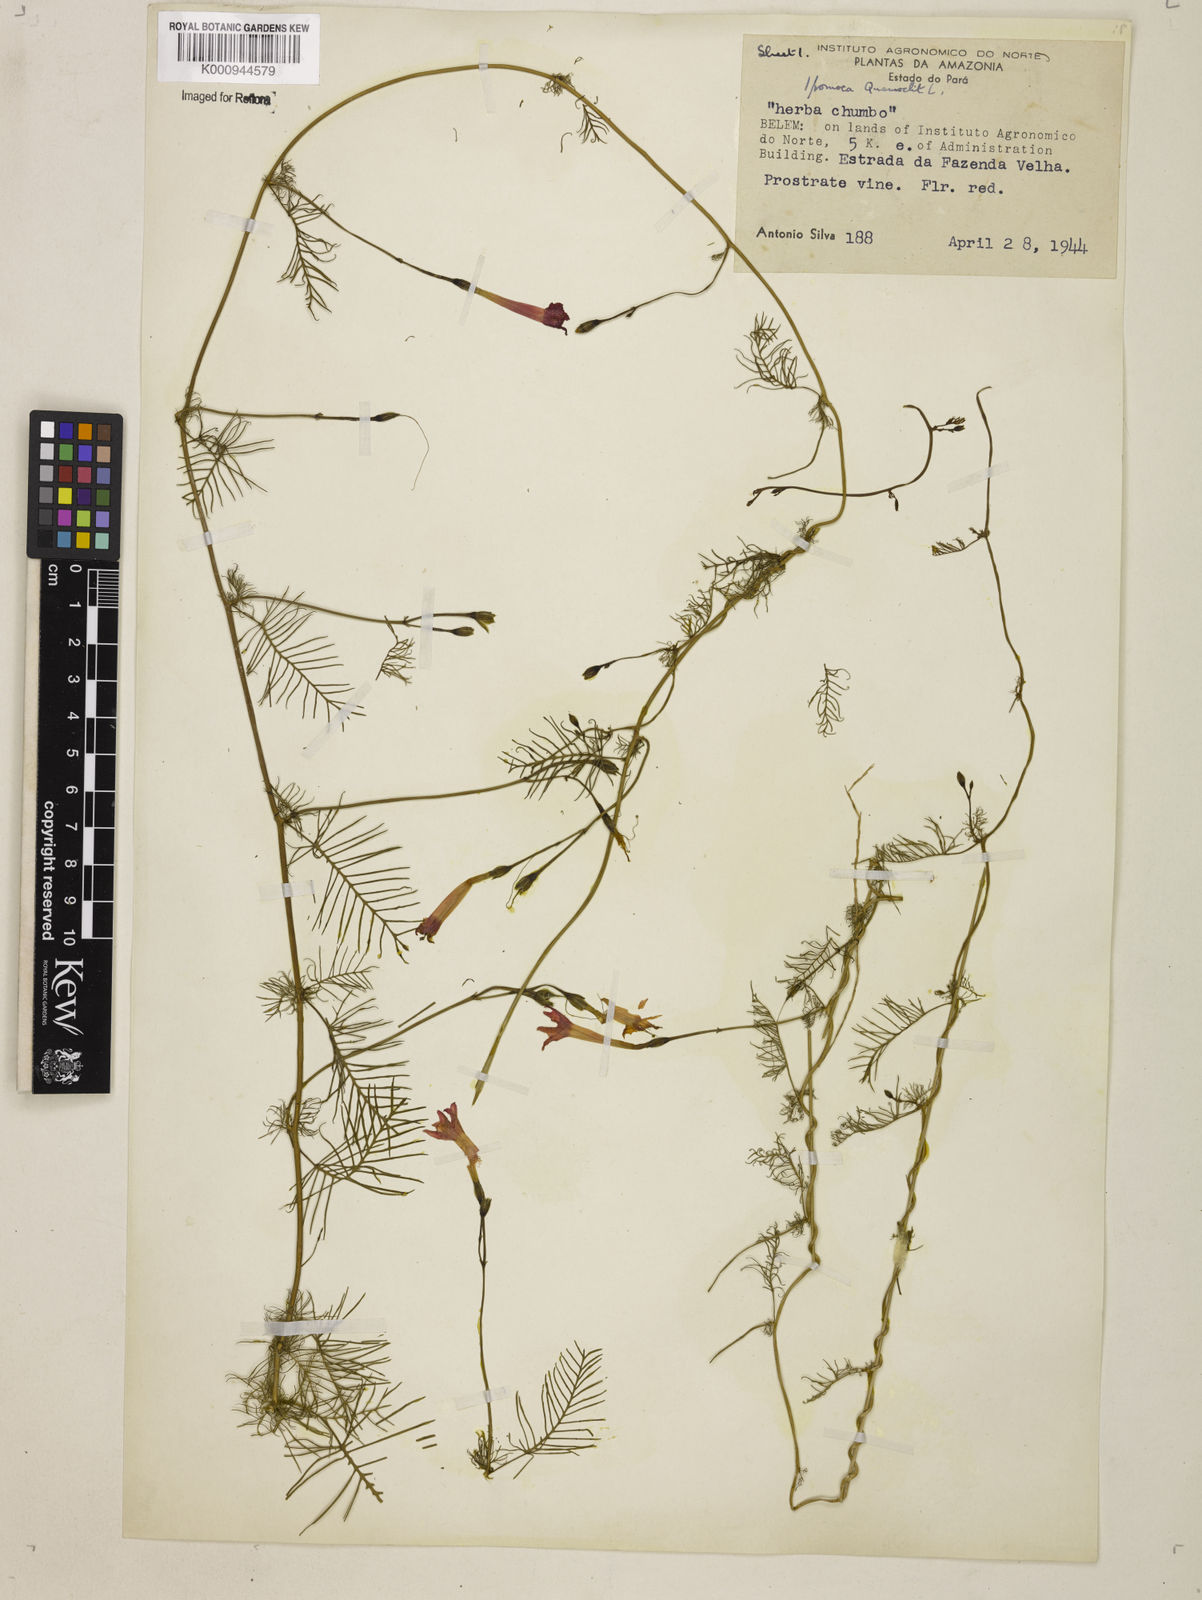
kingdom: Plantae
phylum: Tracheophyta
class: Magnoliopsida
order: Solanales
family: Convolvulaceae
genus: Ipomoea
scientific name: Ipomoea quamoclit
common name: Cypress vine
